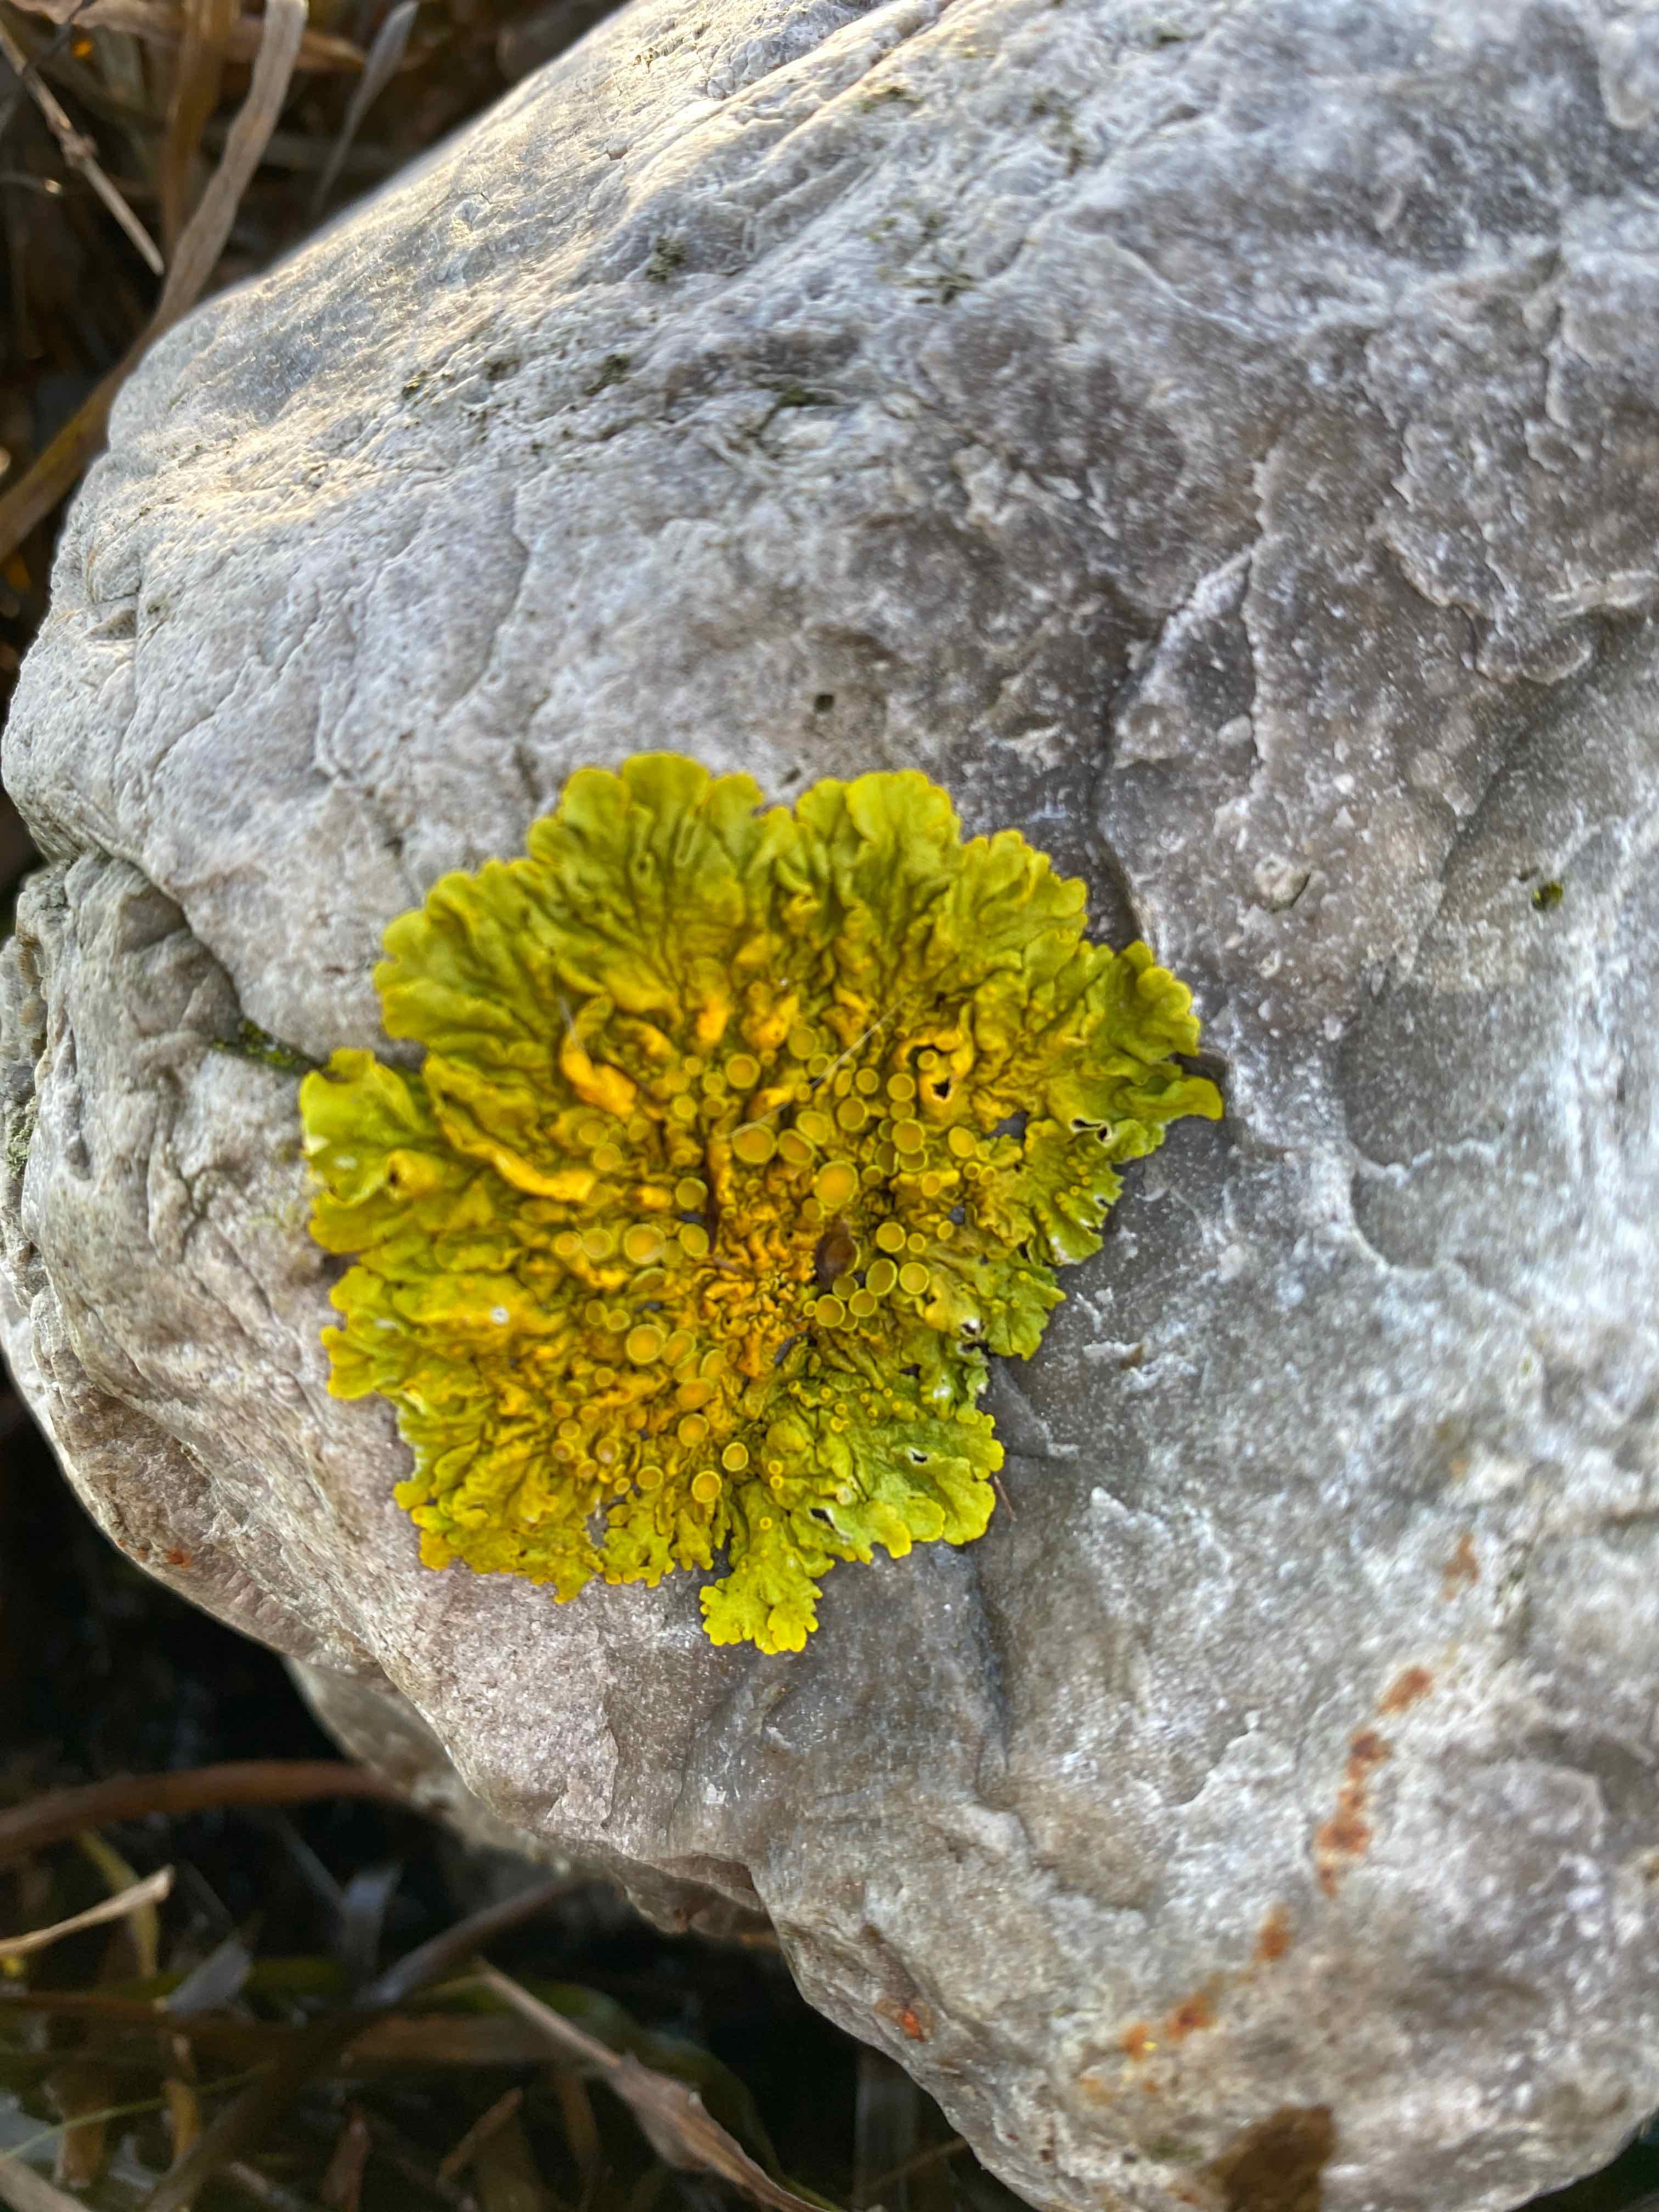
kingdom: Fungi
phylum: Ascomycota
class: Lecanoromycetes
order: Teloschistales
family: Teloschistaceae
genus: Xanthoria
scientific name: Xanthoria parietina
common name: almindelig væggelav
